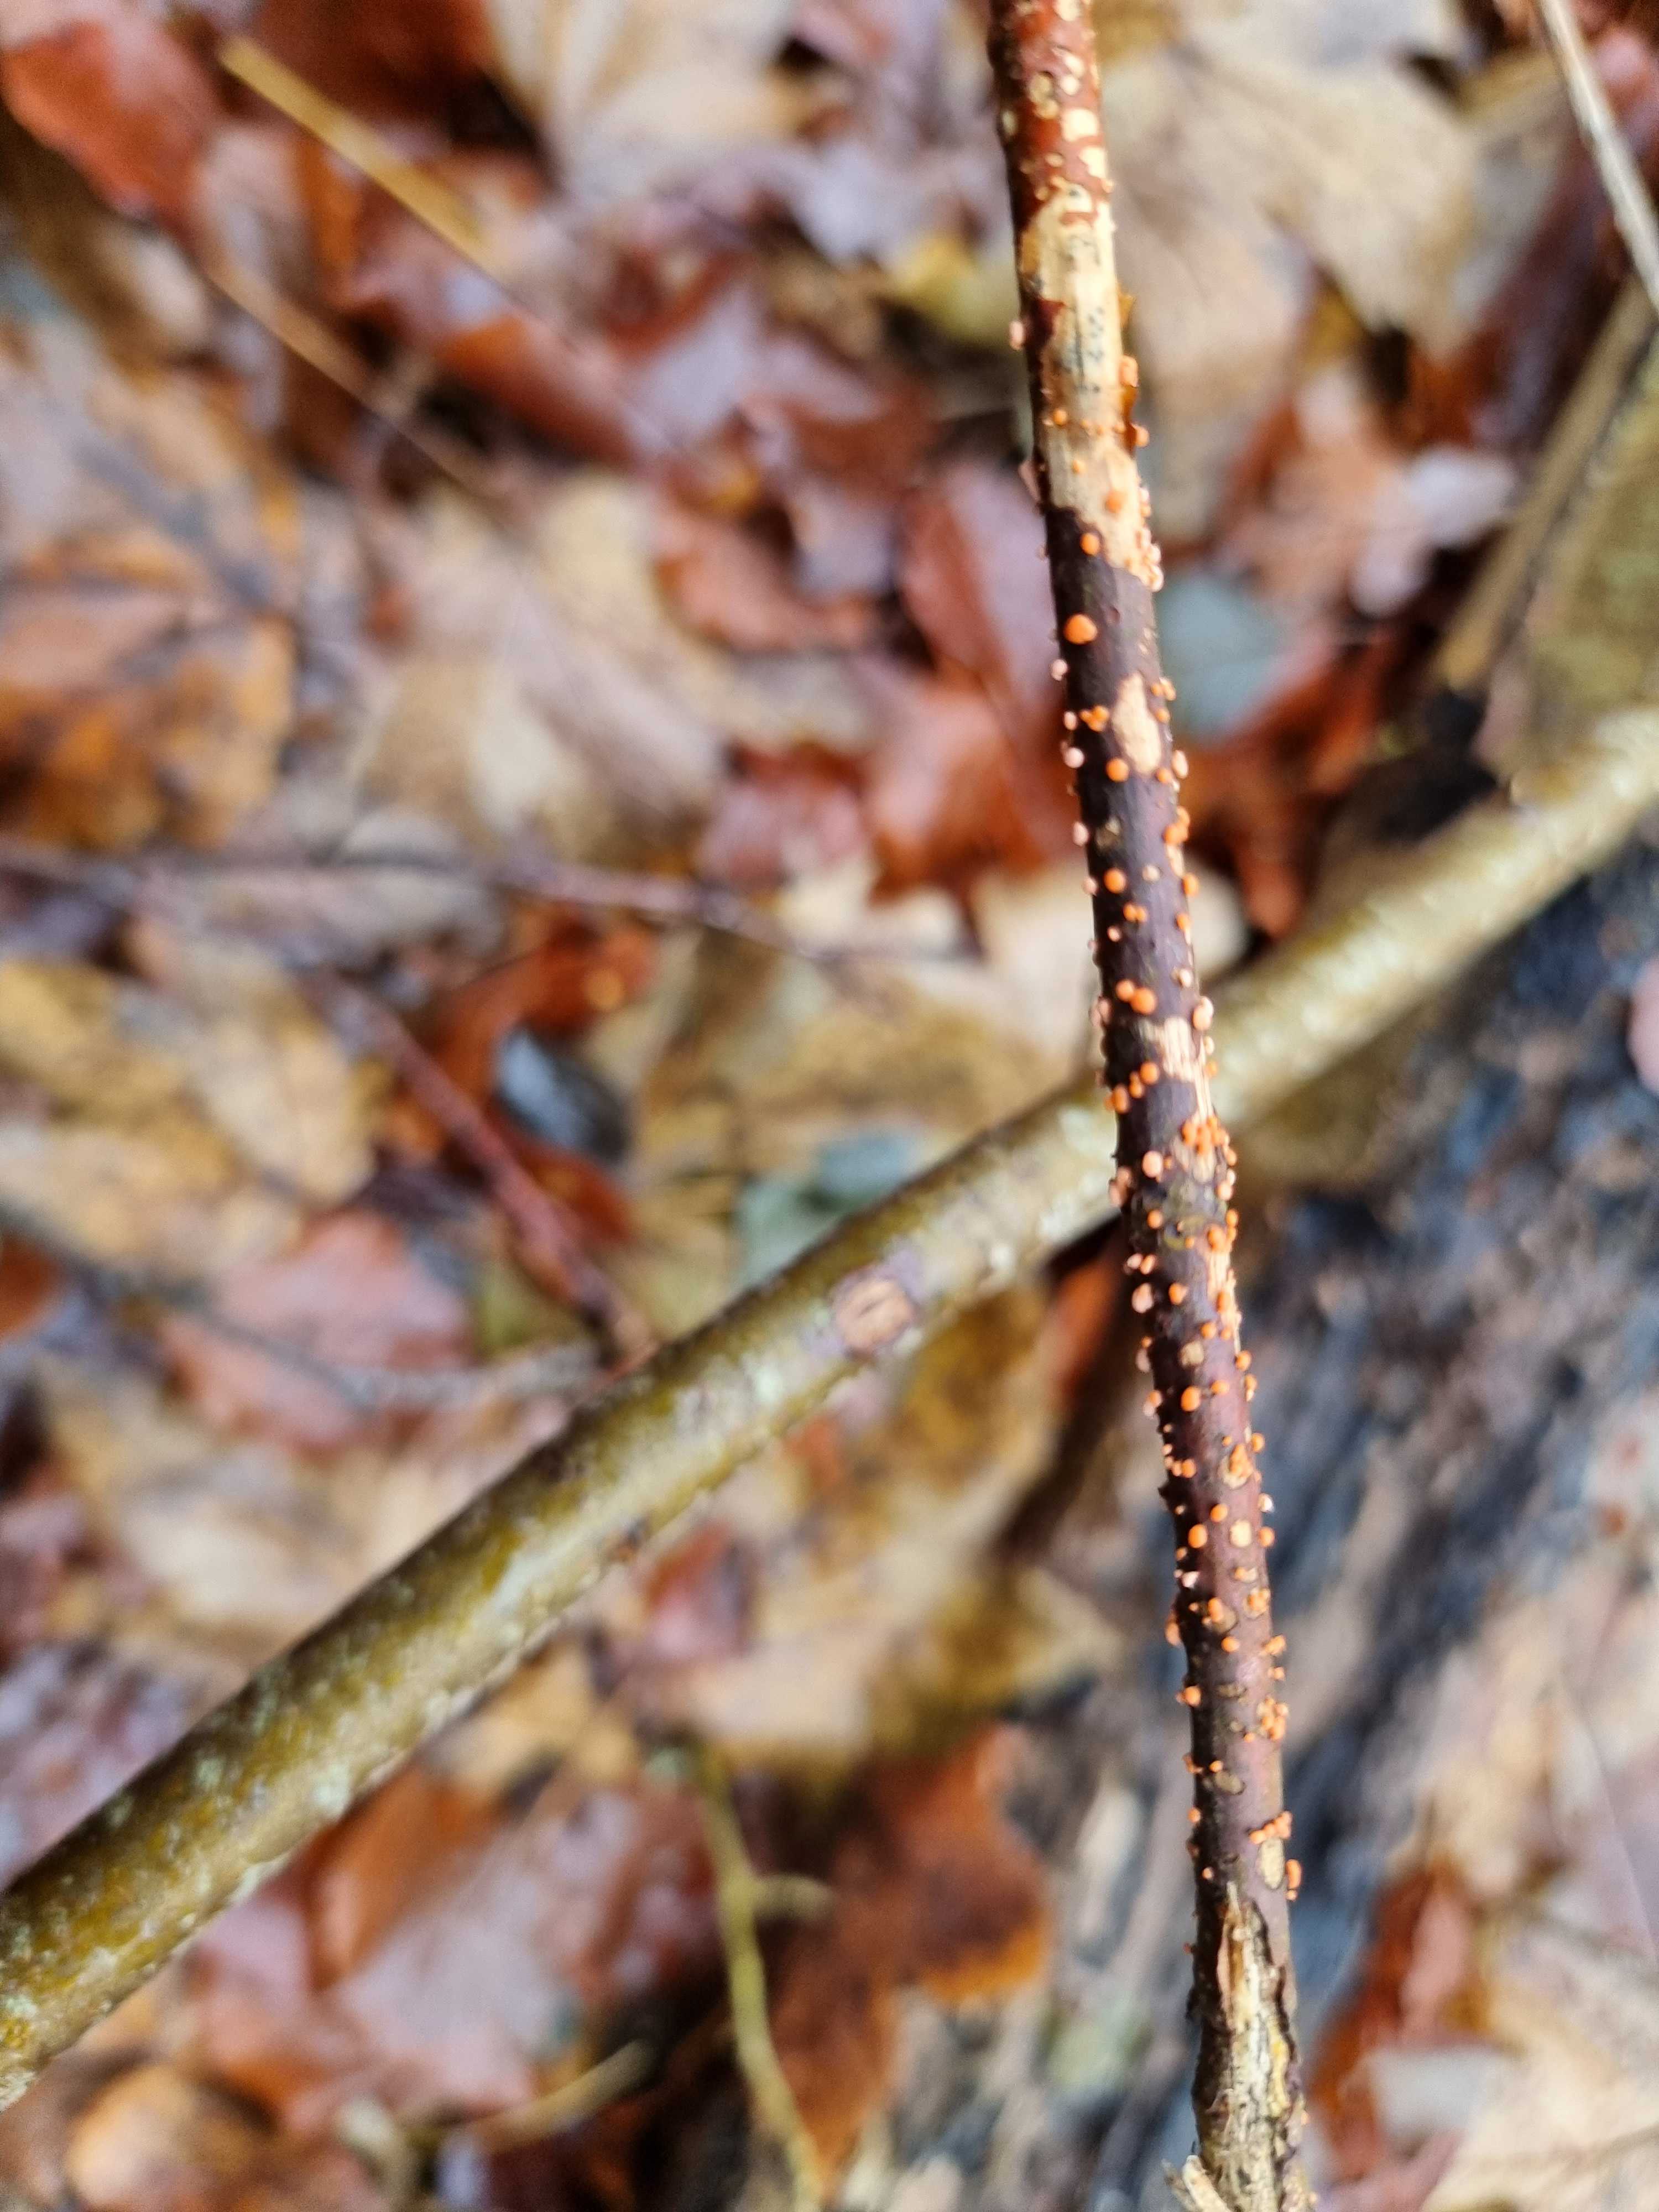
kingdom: Fungi
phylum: Ascomycota
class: Sordariomycetes
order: Hypocreales
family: Nectriaceae
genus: Nectria
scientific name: Nectria cinnabarina
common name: almindelig cinnobersvamp
